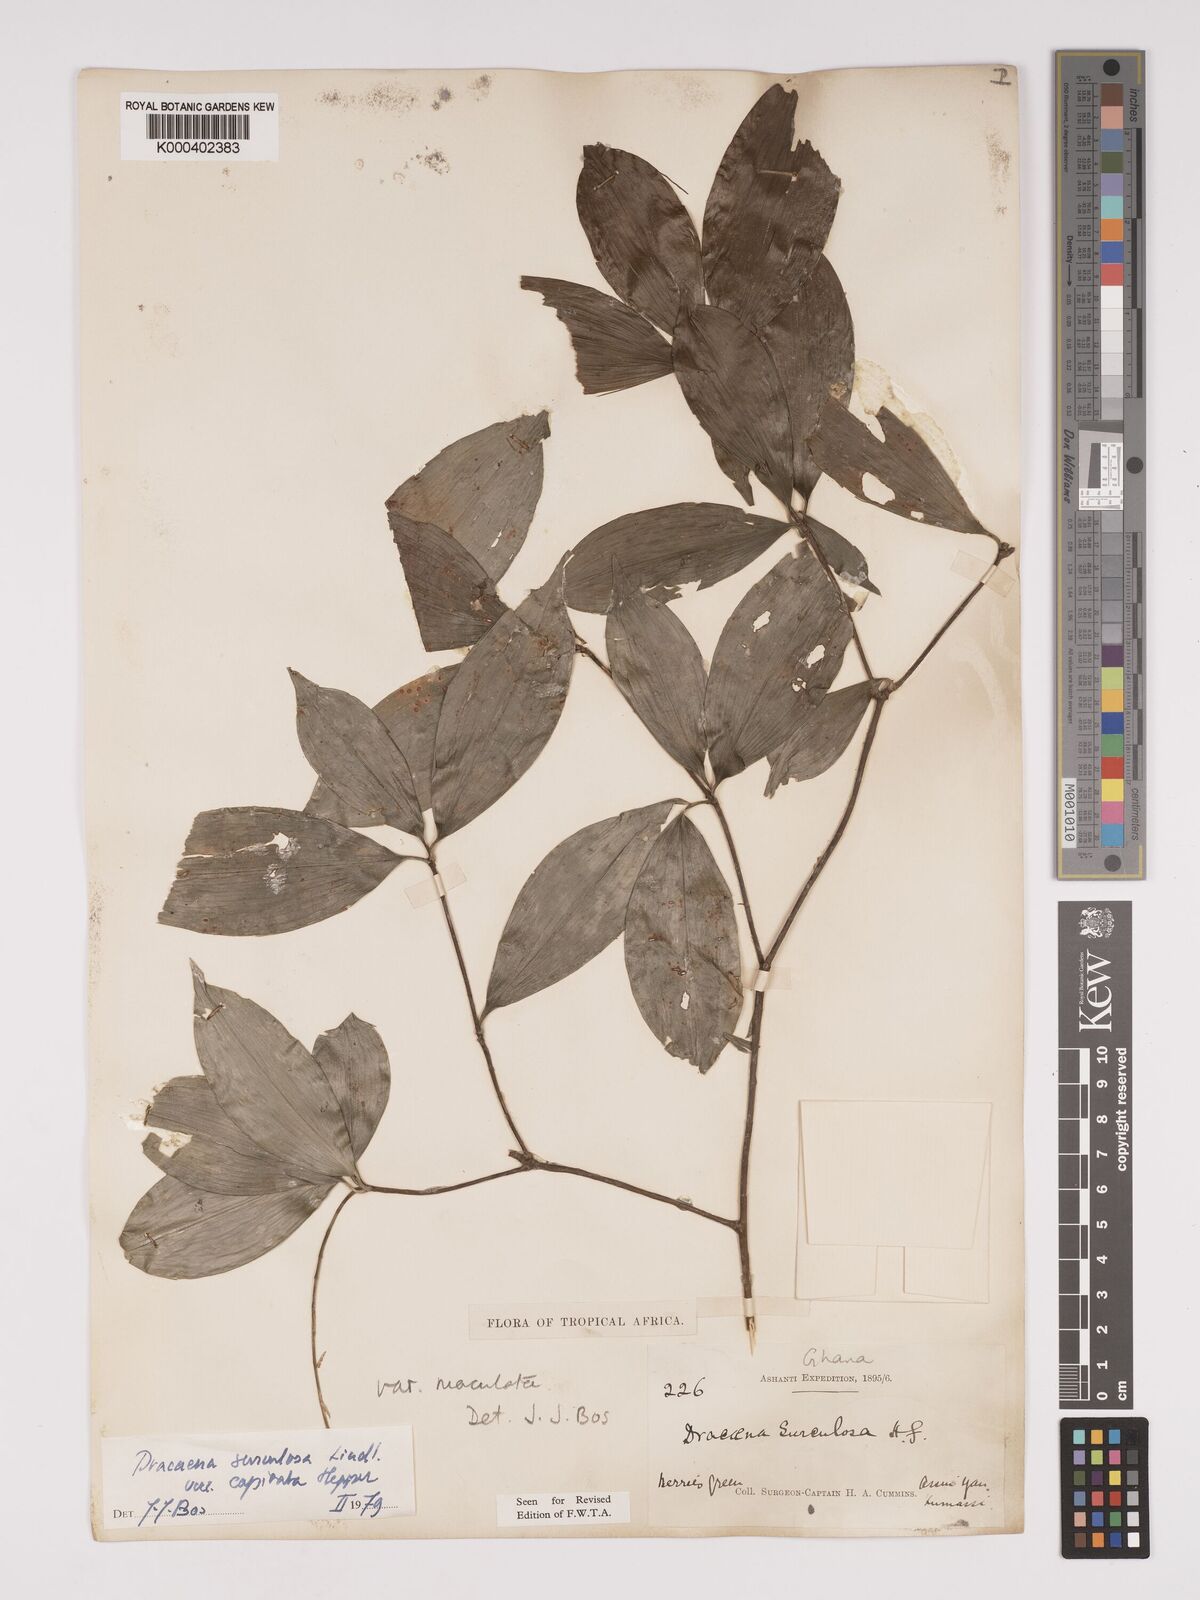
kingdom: Plantae
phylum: Tracheophyta
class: Liliopsida
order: Asparagales
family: Asparagaceae
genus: Dracaena
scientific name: Dracaena surculosa
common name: Spotted dracaena
